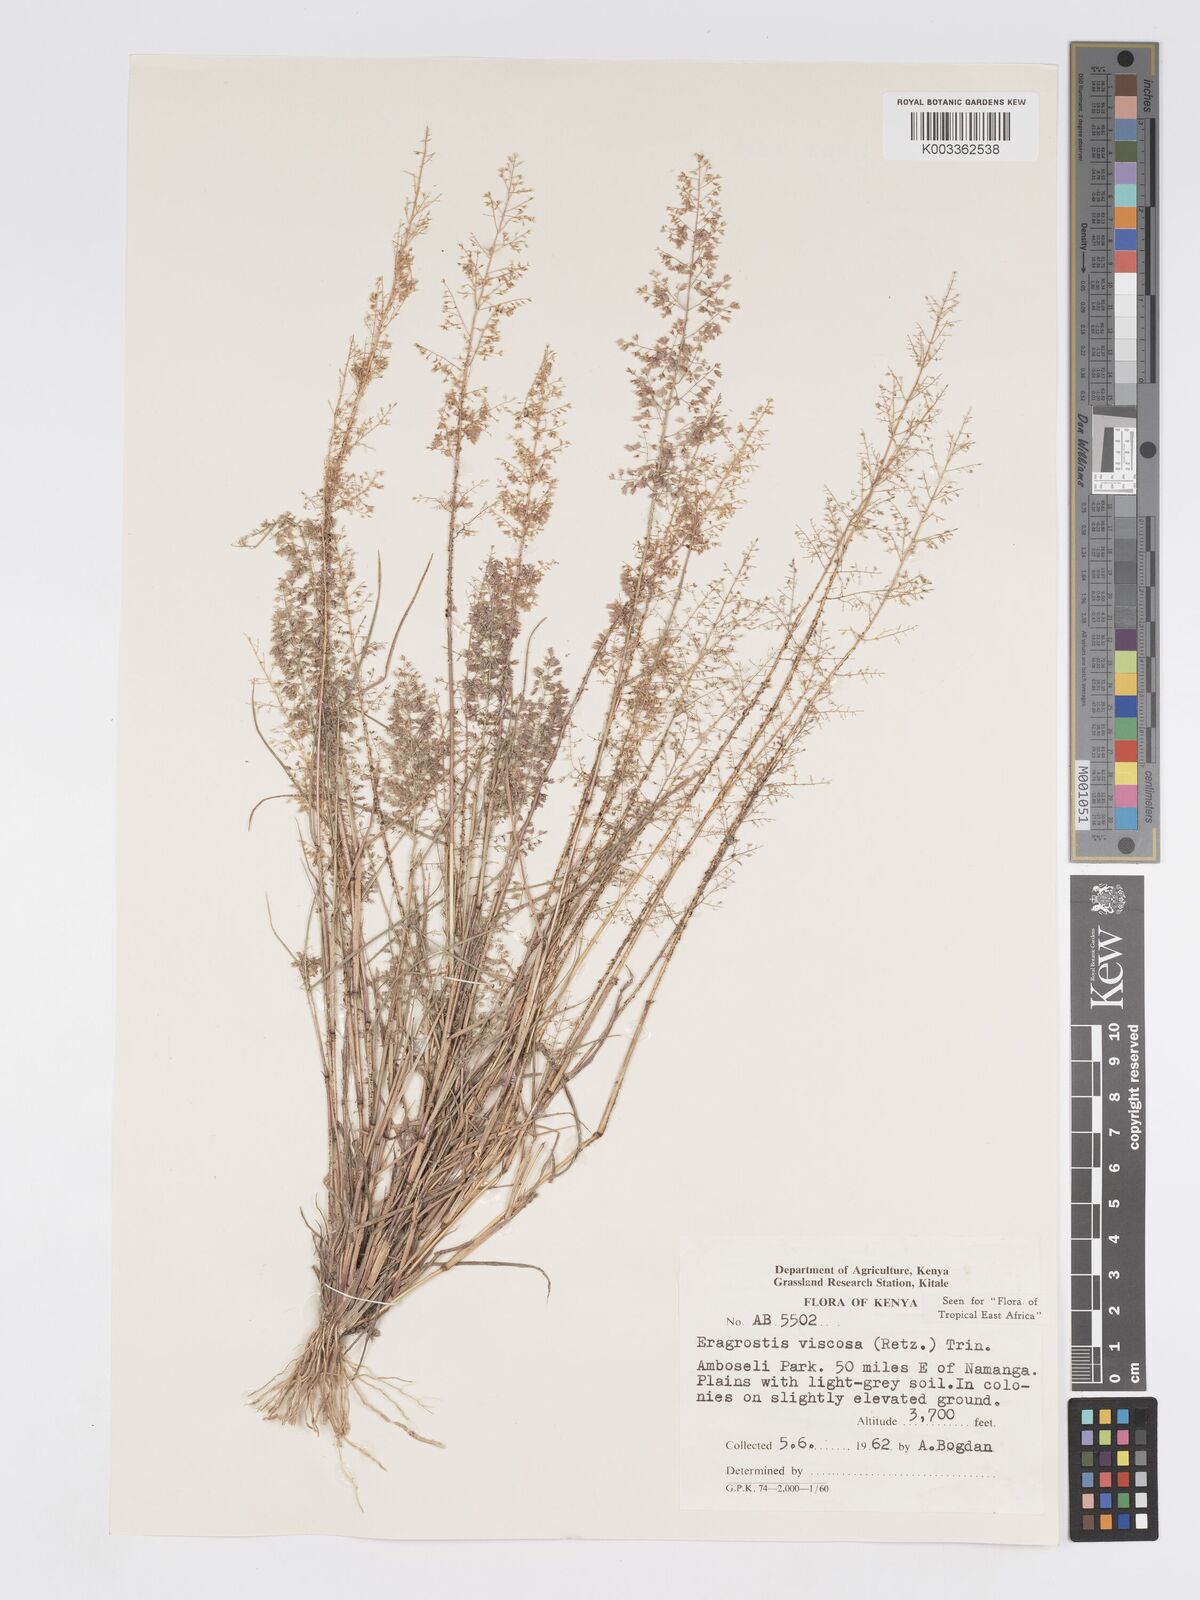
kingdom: Plantae
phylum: Tracheophyta
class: Liliopsida
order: Poales
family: Poaceae
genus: Eragrostis
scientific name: Eragrostis viscosa
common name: Sticky love grass
